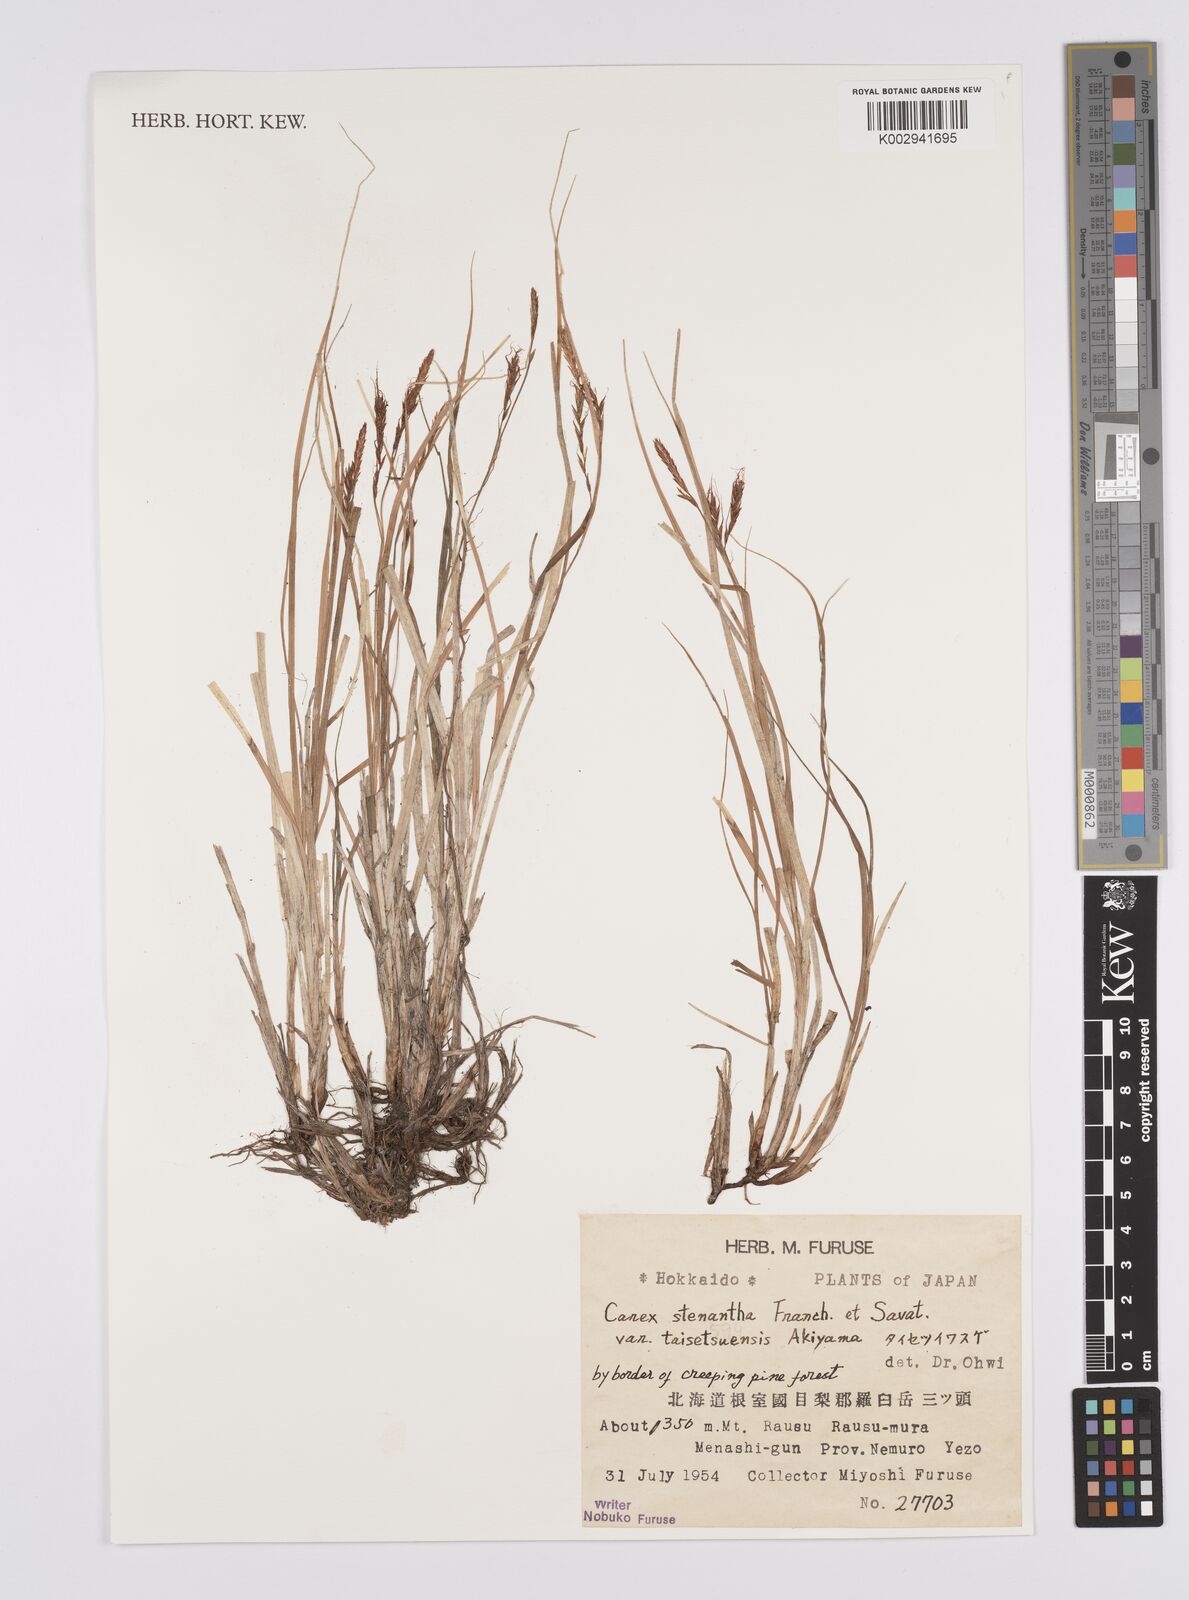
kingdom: Plantae
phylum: Tracheophyta
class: Liliopsida
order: Poales
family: Cyperaceae
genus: Carex
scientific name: Carex bostrychostigma
